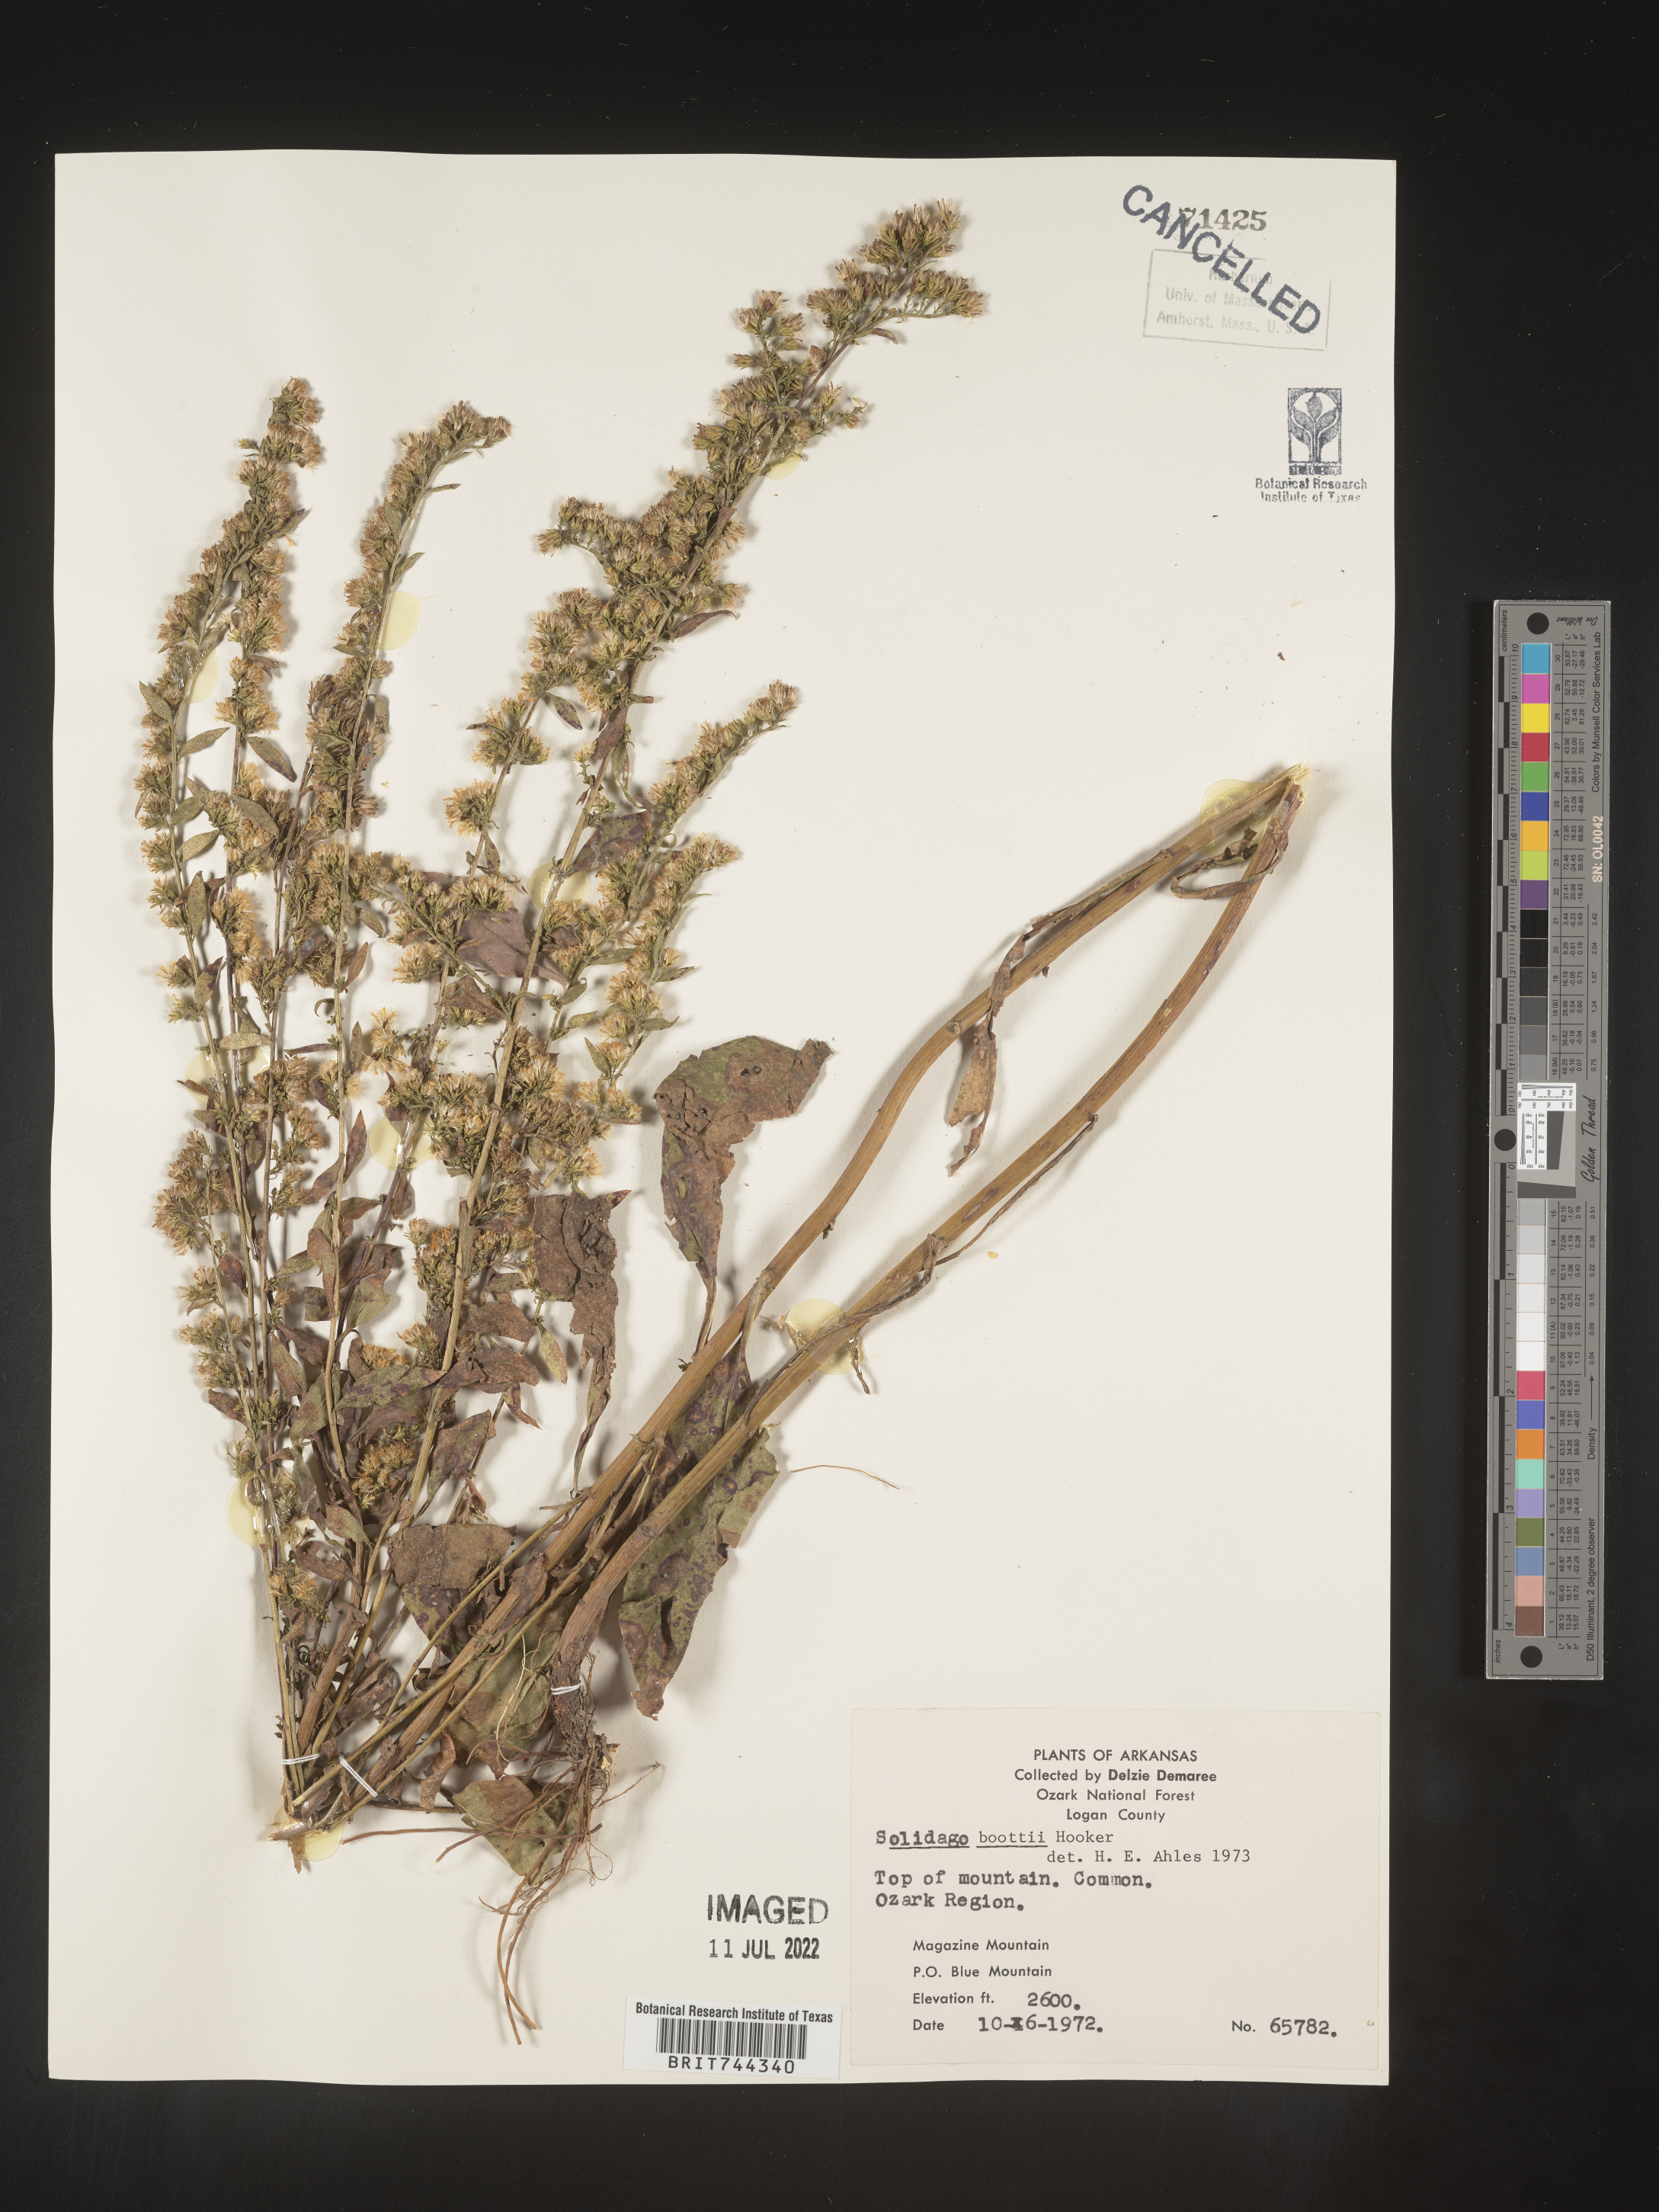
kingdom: Plantae
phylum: Tracheophyta
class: Magnoliopsida
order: Asterales
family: Asteraceae
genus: Solidago
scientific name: Solidago arguta
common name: Atlantic goldenrod
